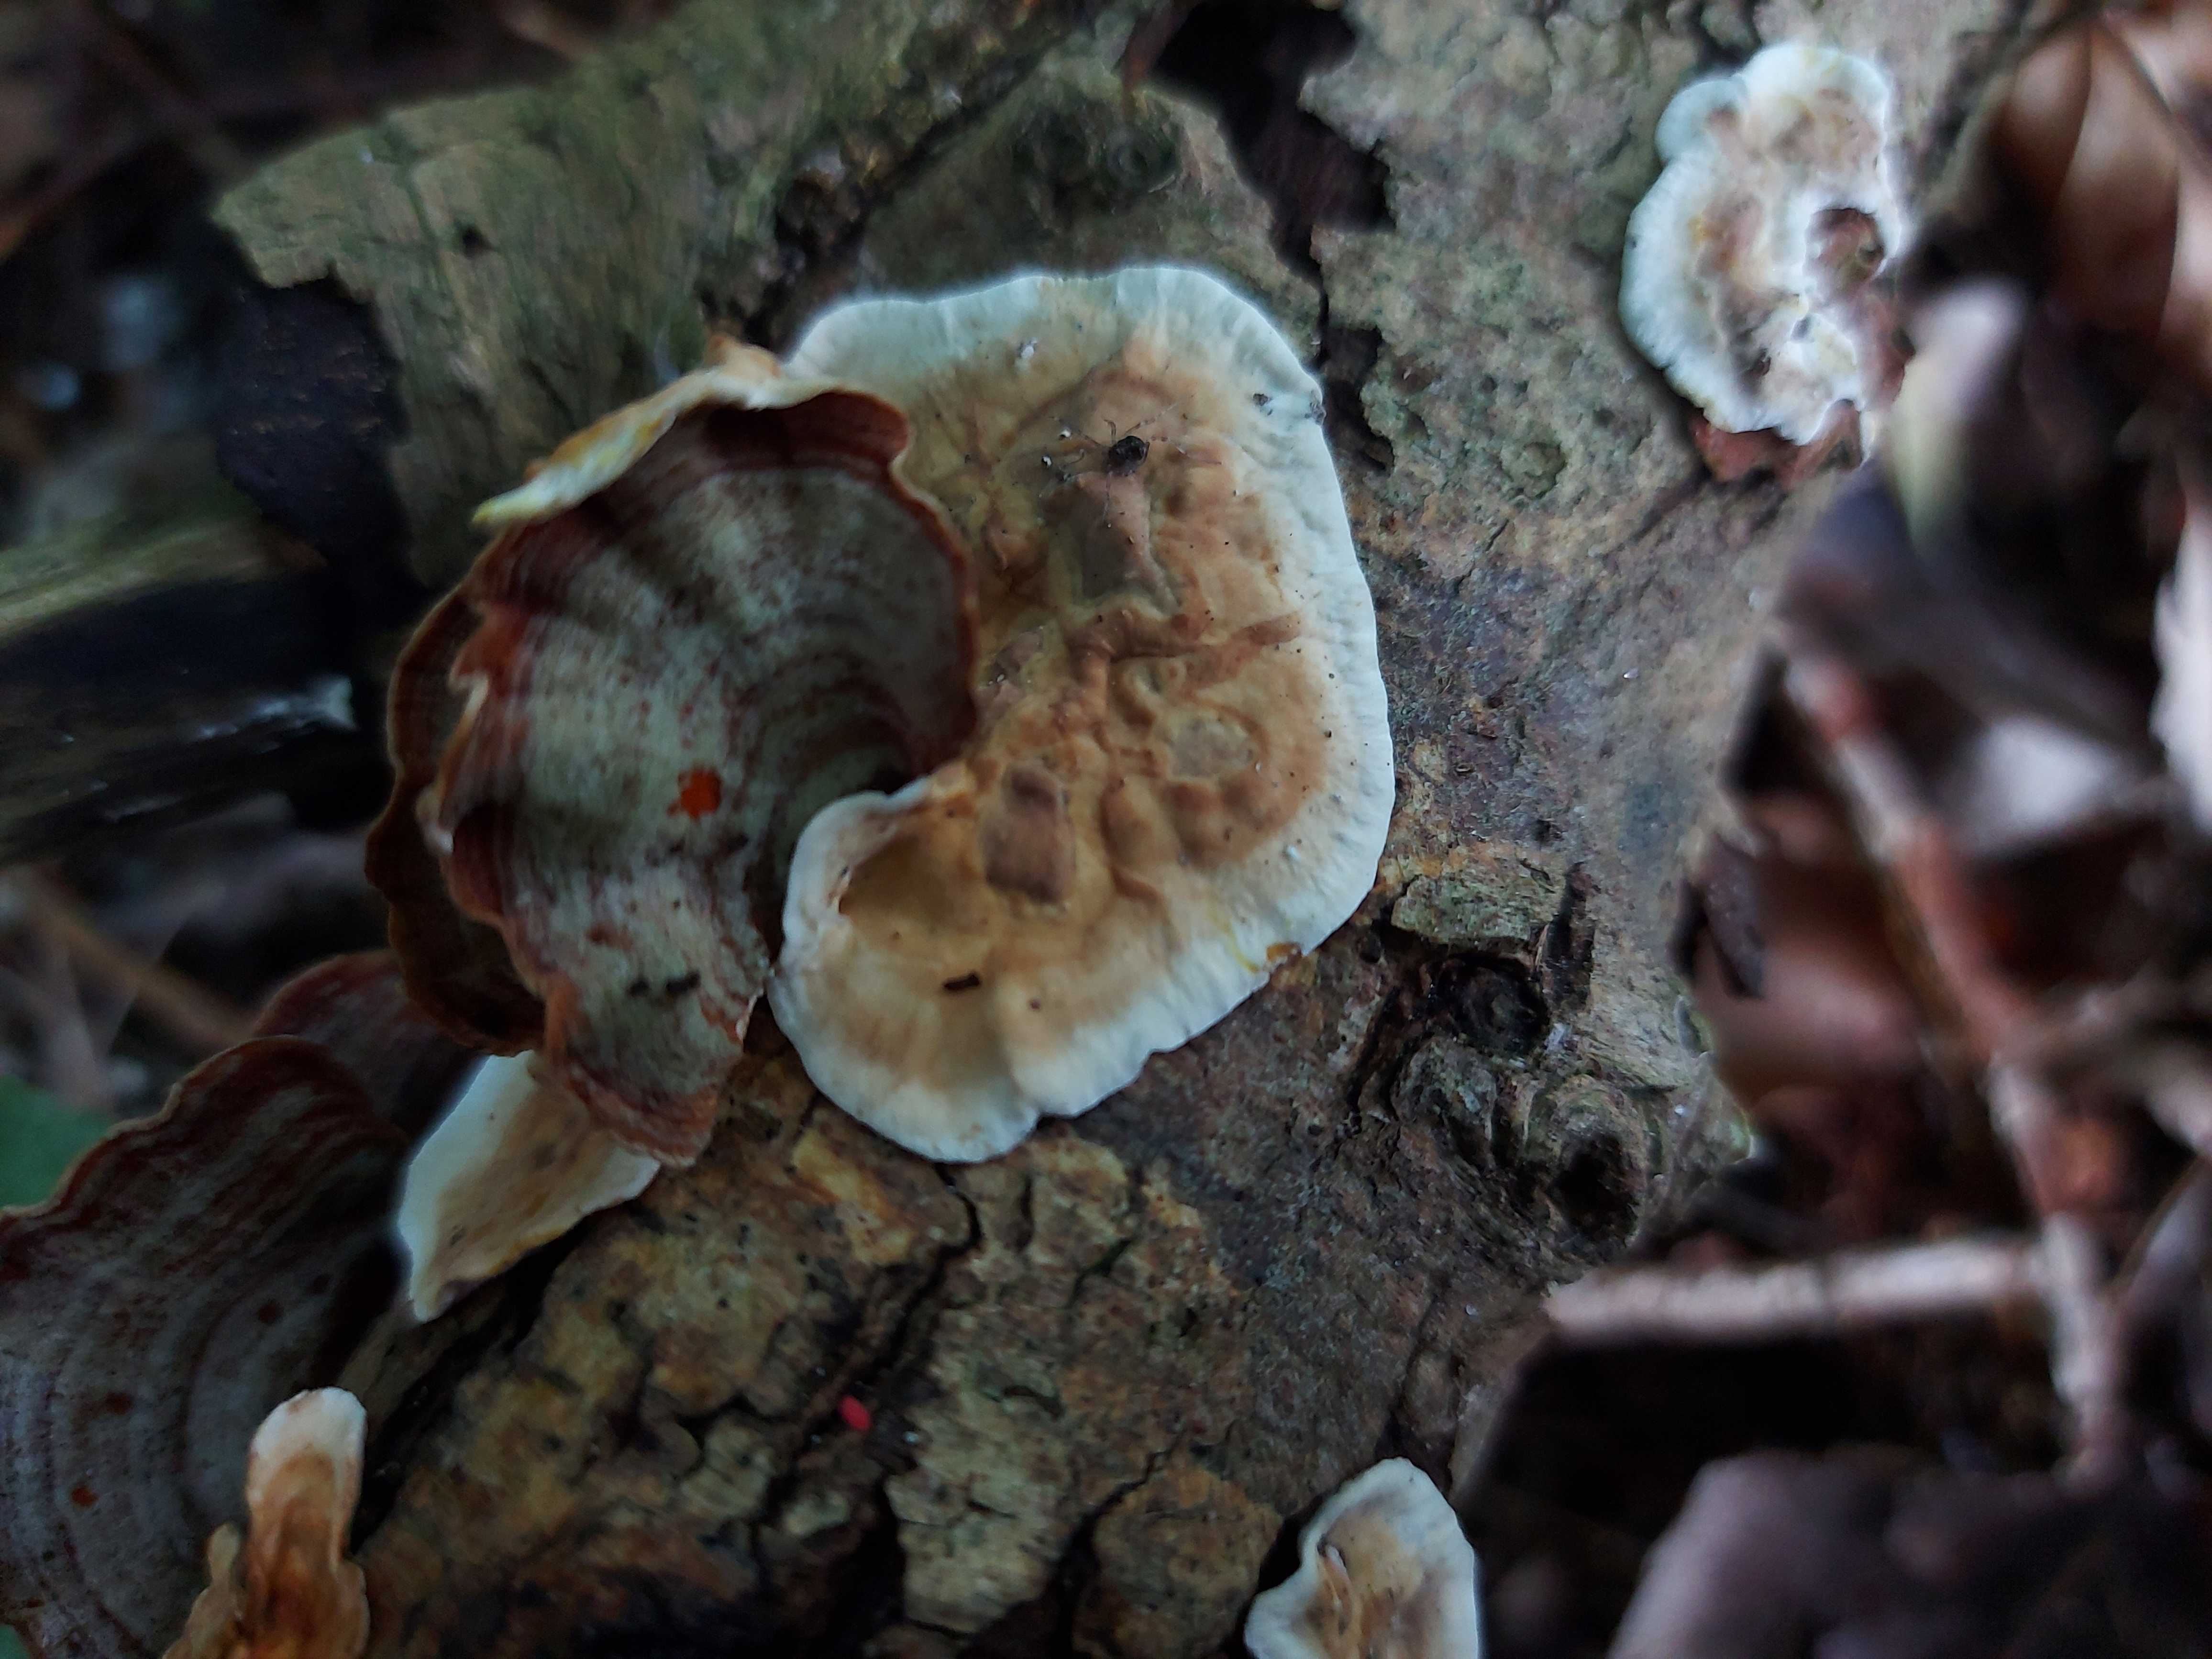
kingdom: Fungi
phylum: Basidiomycota
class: Agaricomycetes
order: Russulales
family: Stereaceae
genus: Stereum
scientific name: Stereum subtomentosum
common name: smuk lædersvamp
